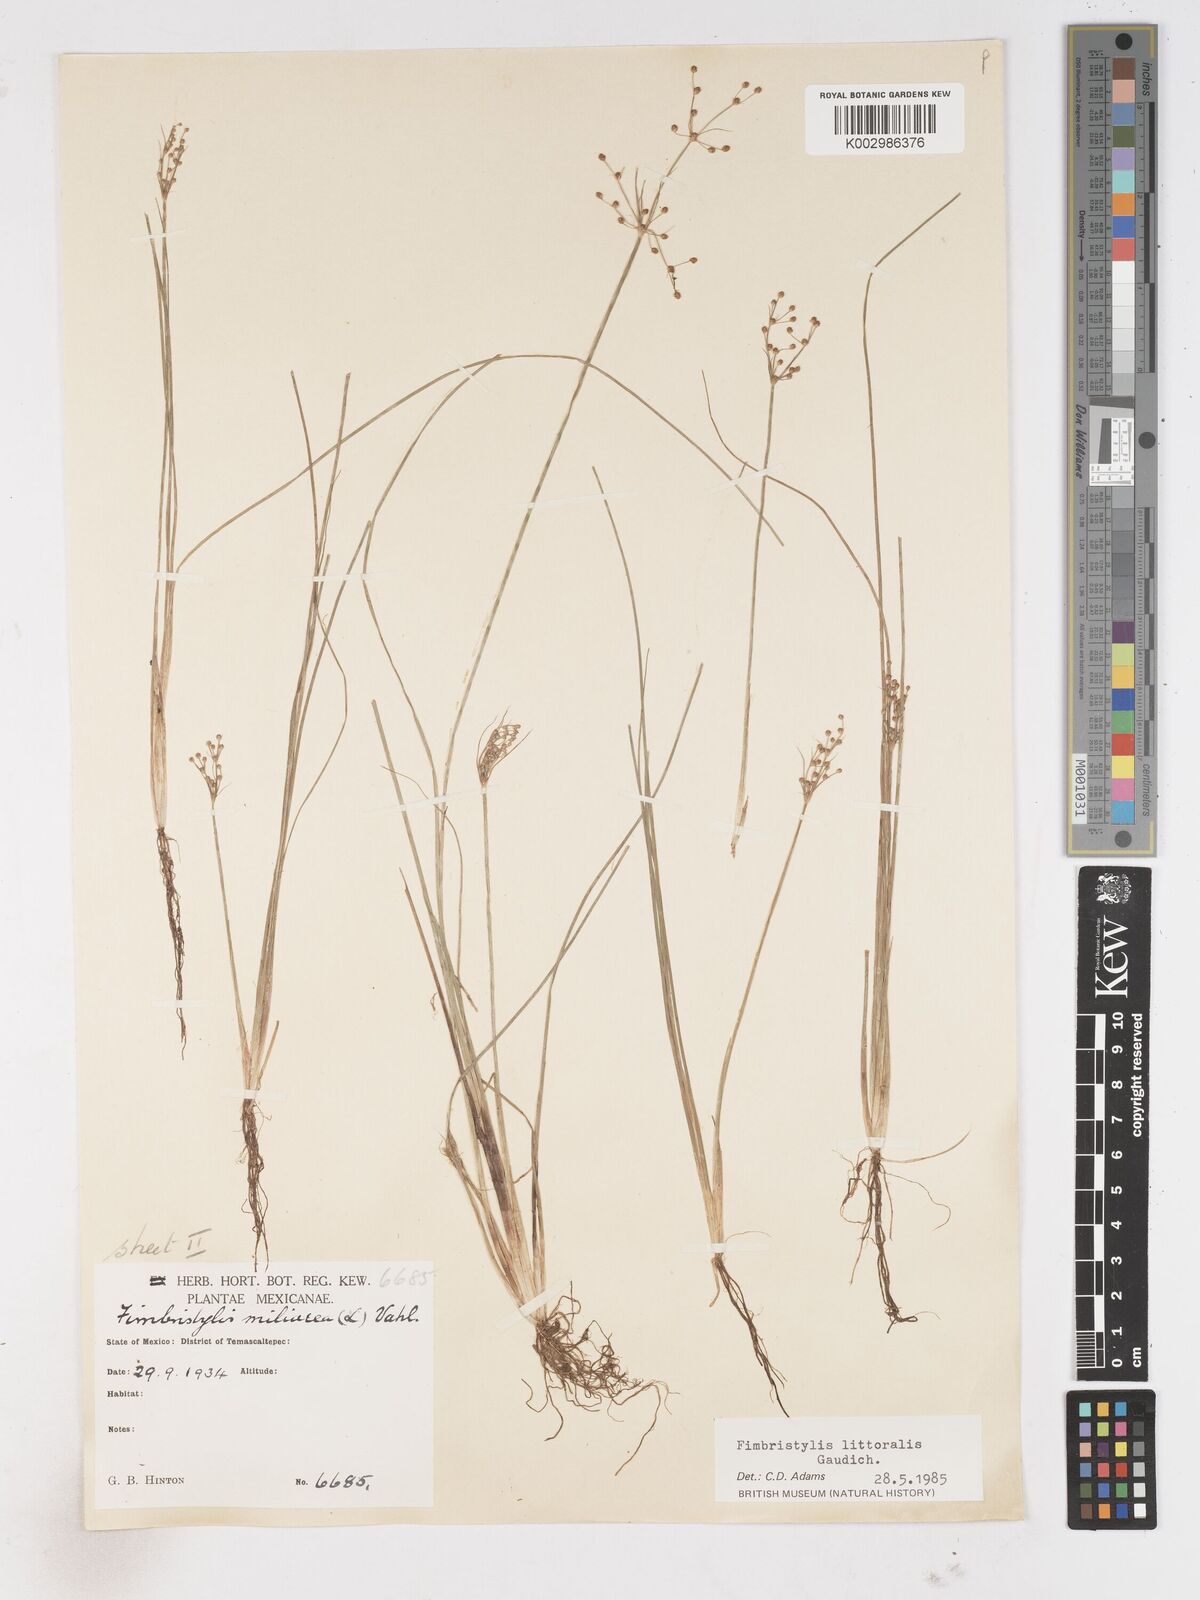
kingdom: Plantae
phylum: Tracheophyta
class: Liliopsida
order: Poales
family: Cyperaceae
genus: Fimbristylis
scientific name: Fimbristylis littoralis
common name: Fimbry
